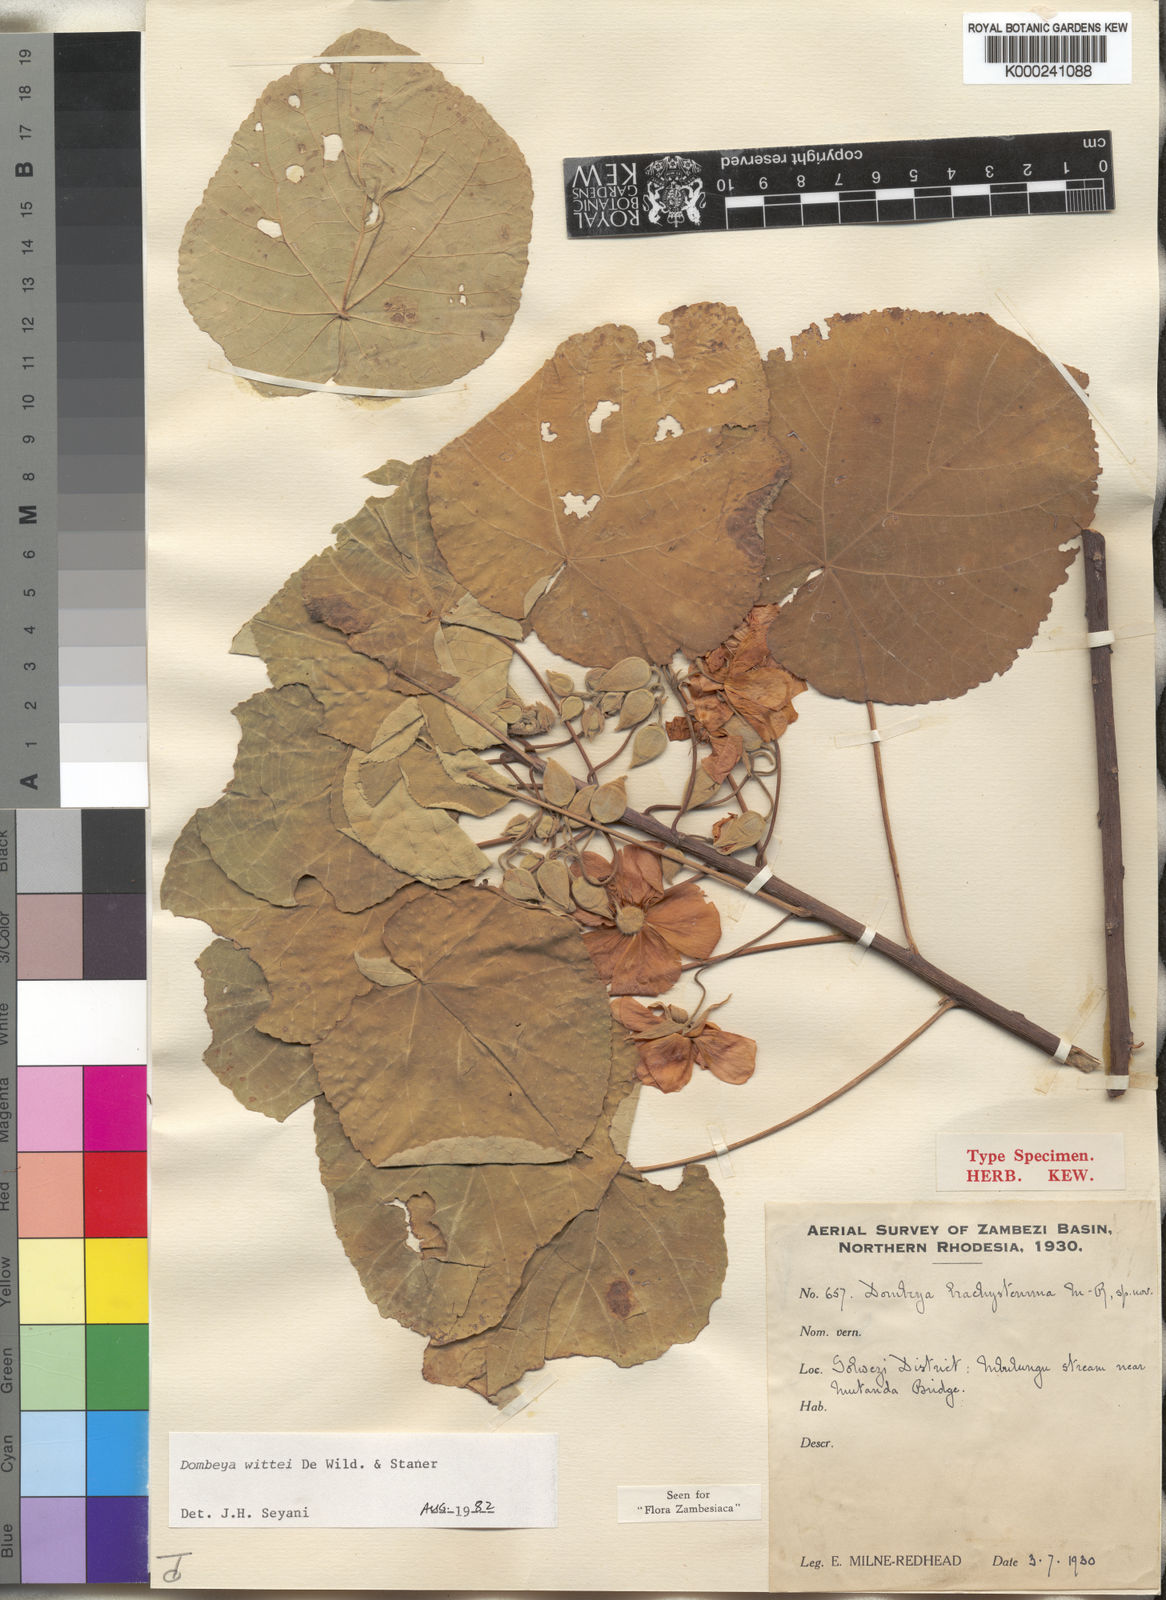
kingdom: Plantae
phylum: Tracheophyta
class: Magnoliopsida
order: Malvales
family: Malvaceae
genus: Dombeya
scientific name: Dombeya wittei
